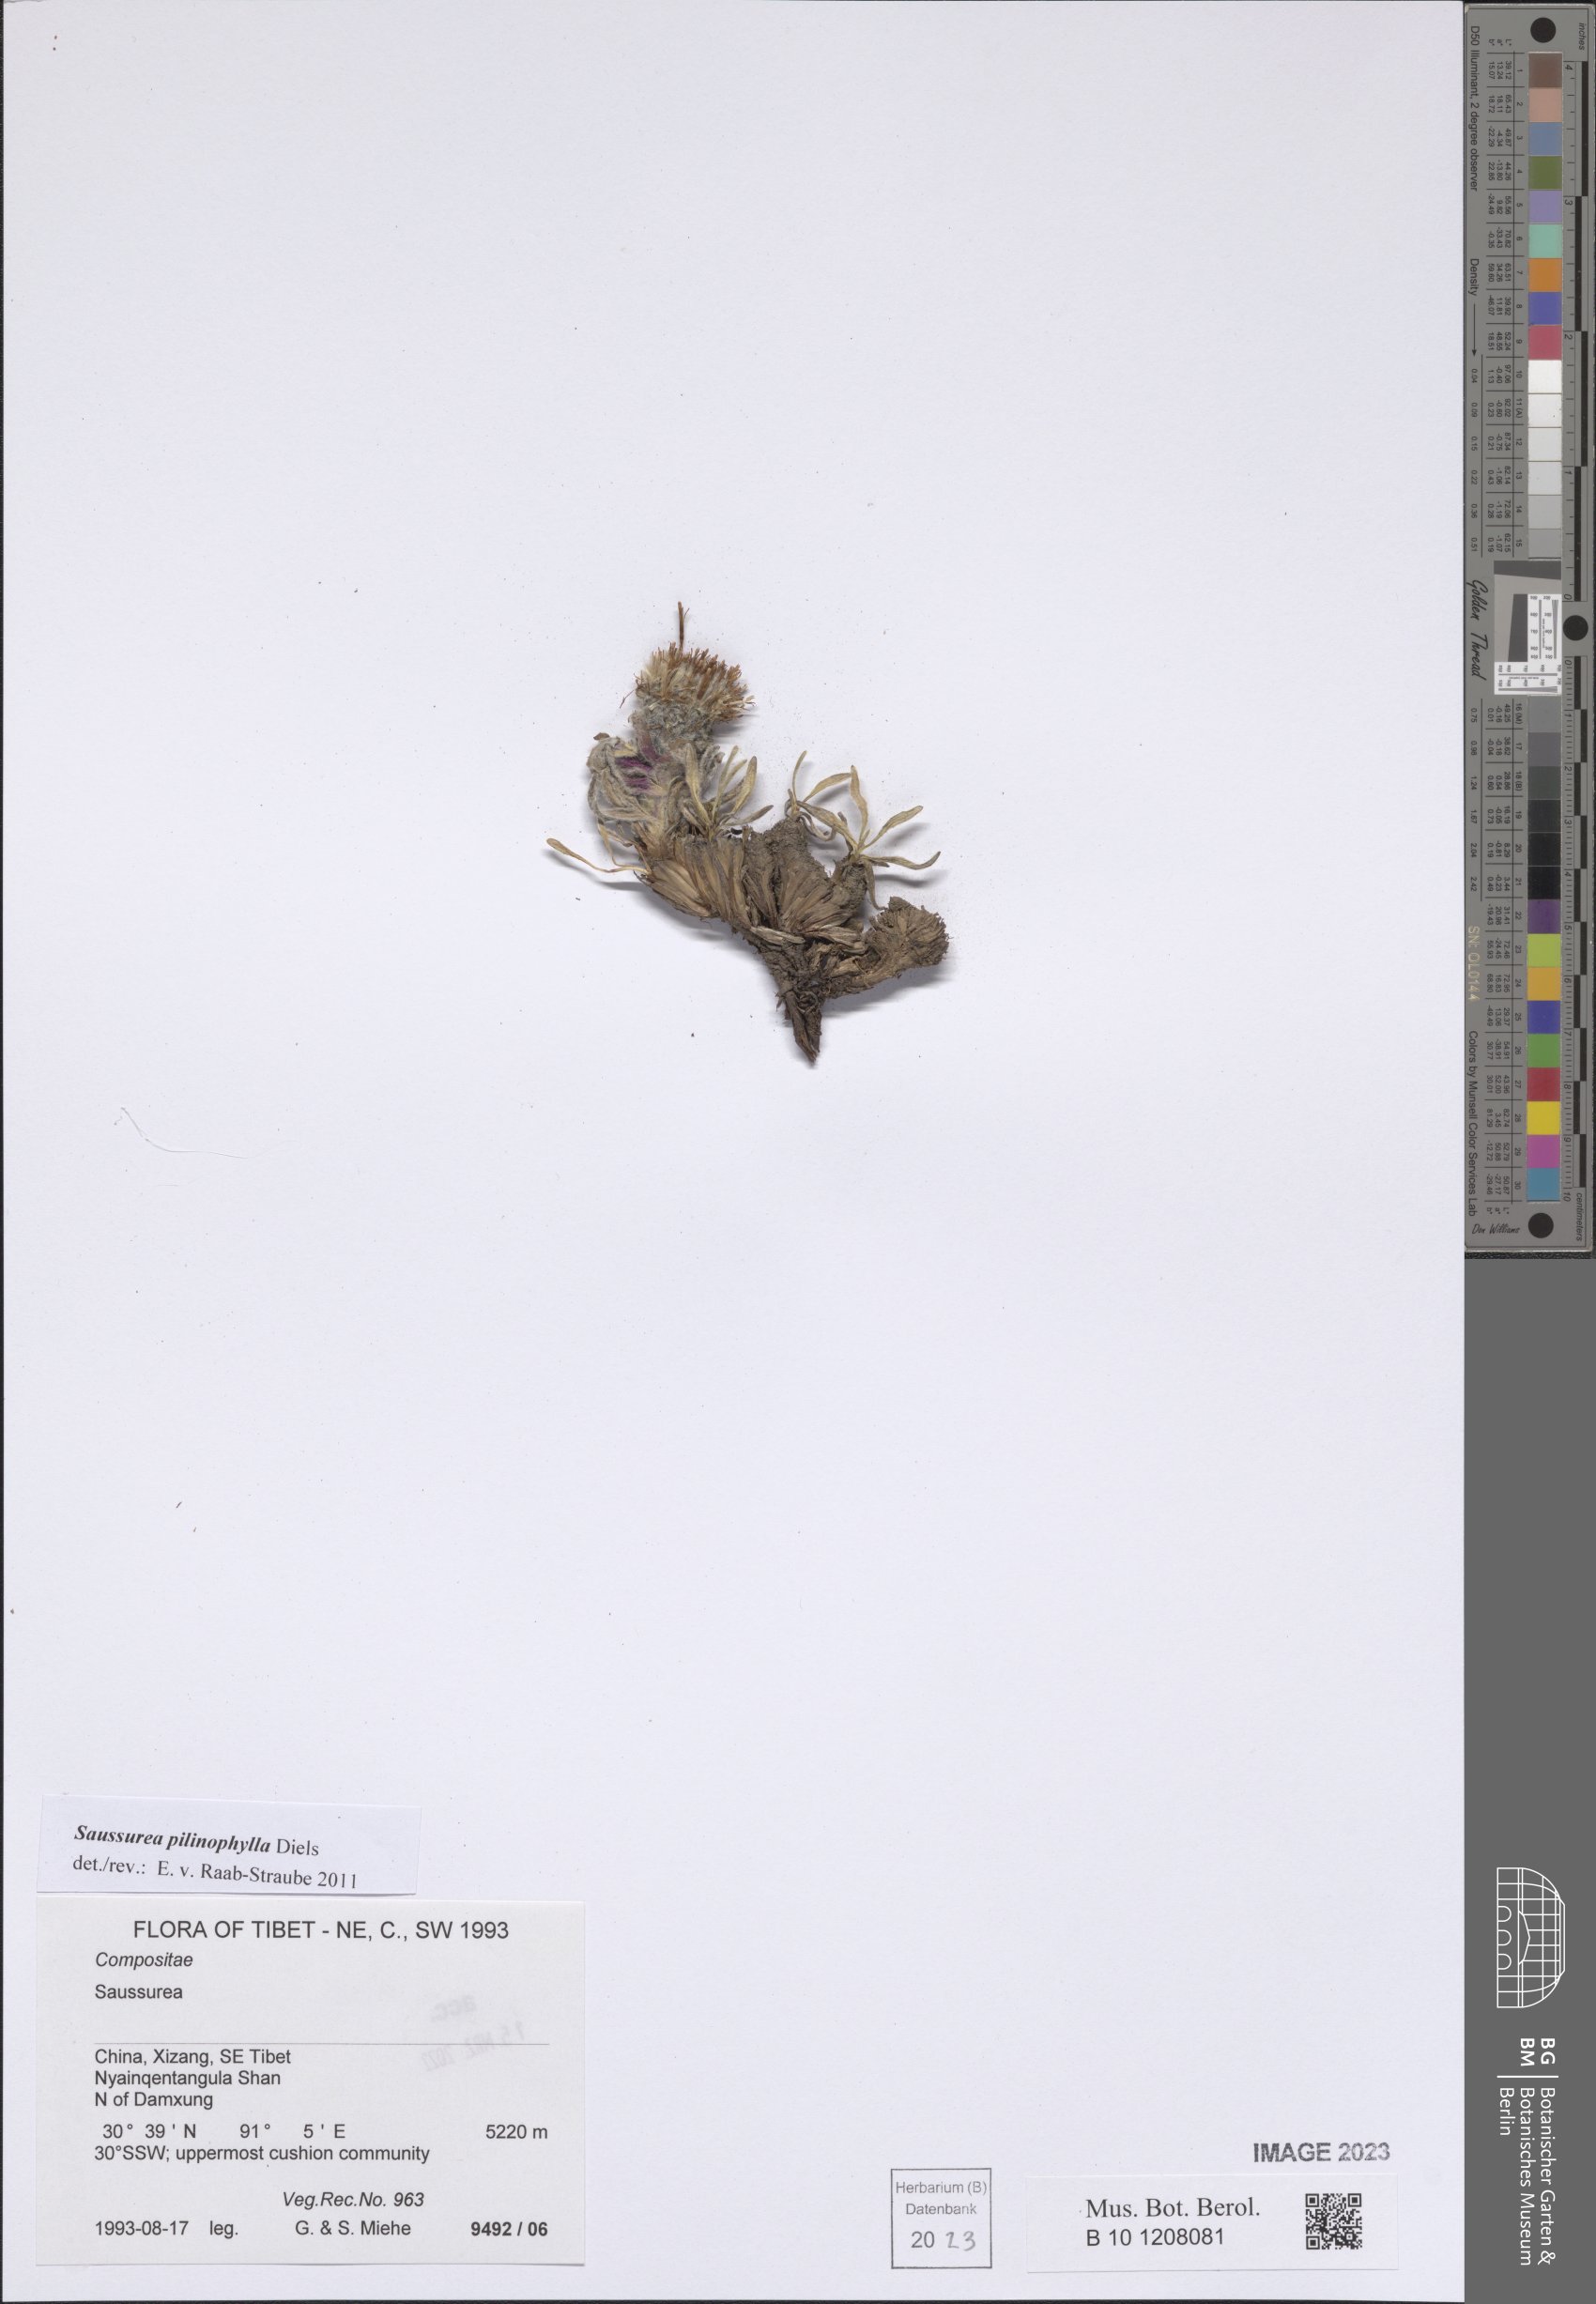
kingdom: Plantae
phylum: Tracheophyta
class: Magnoliopsida
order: Asterales
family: Asteraceae
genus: Saussurea
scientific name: Saussurea pilinophylla
